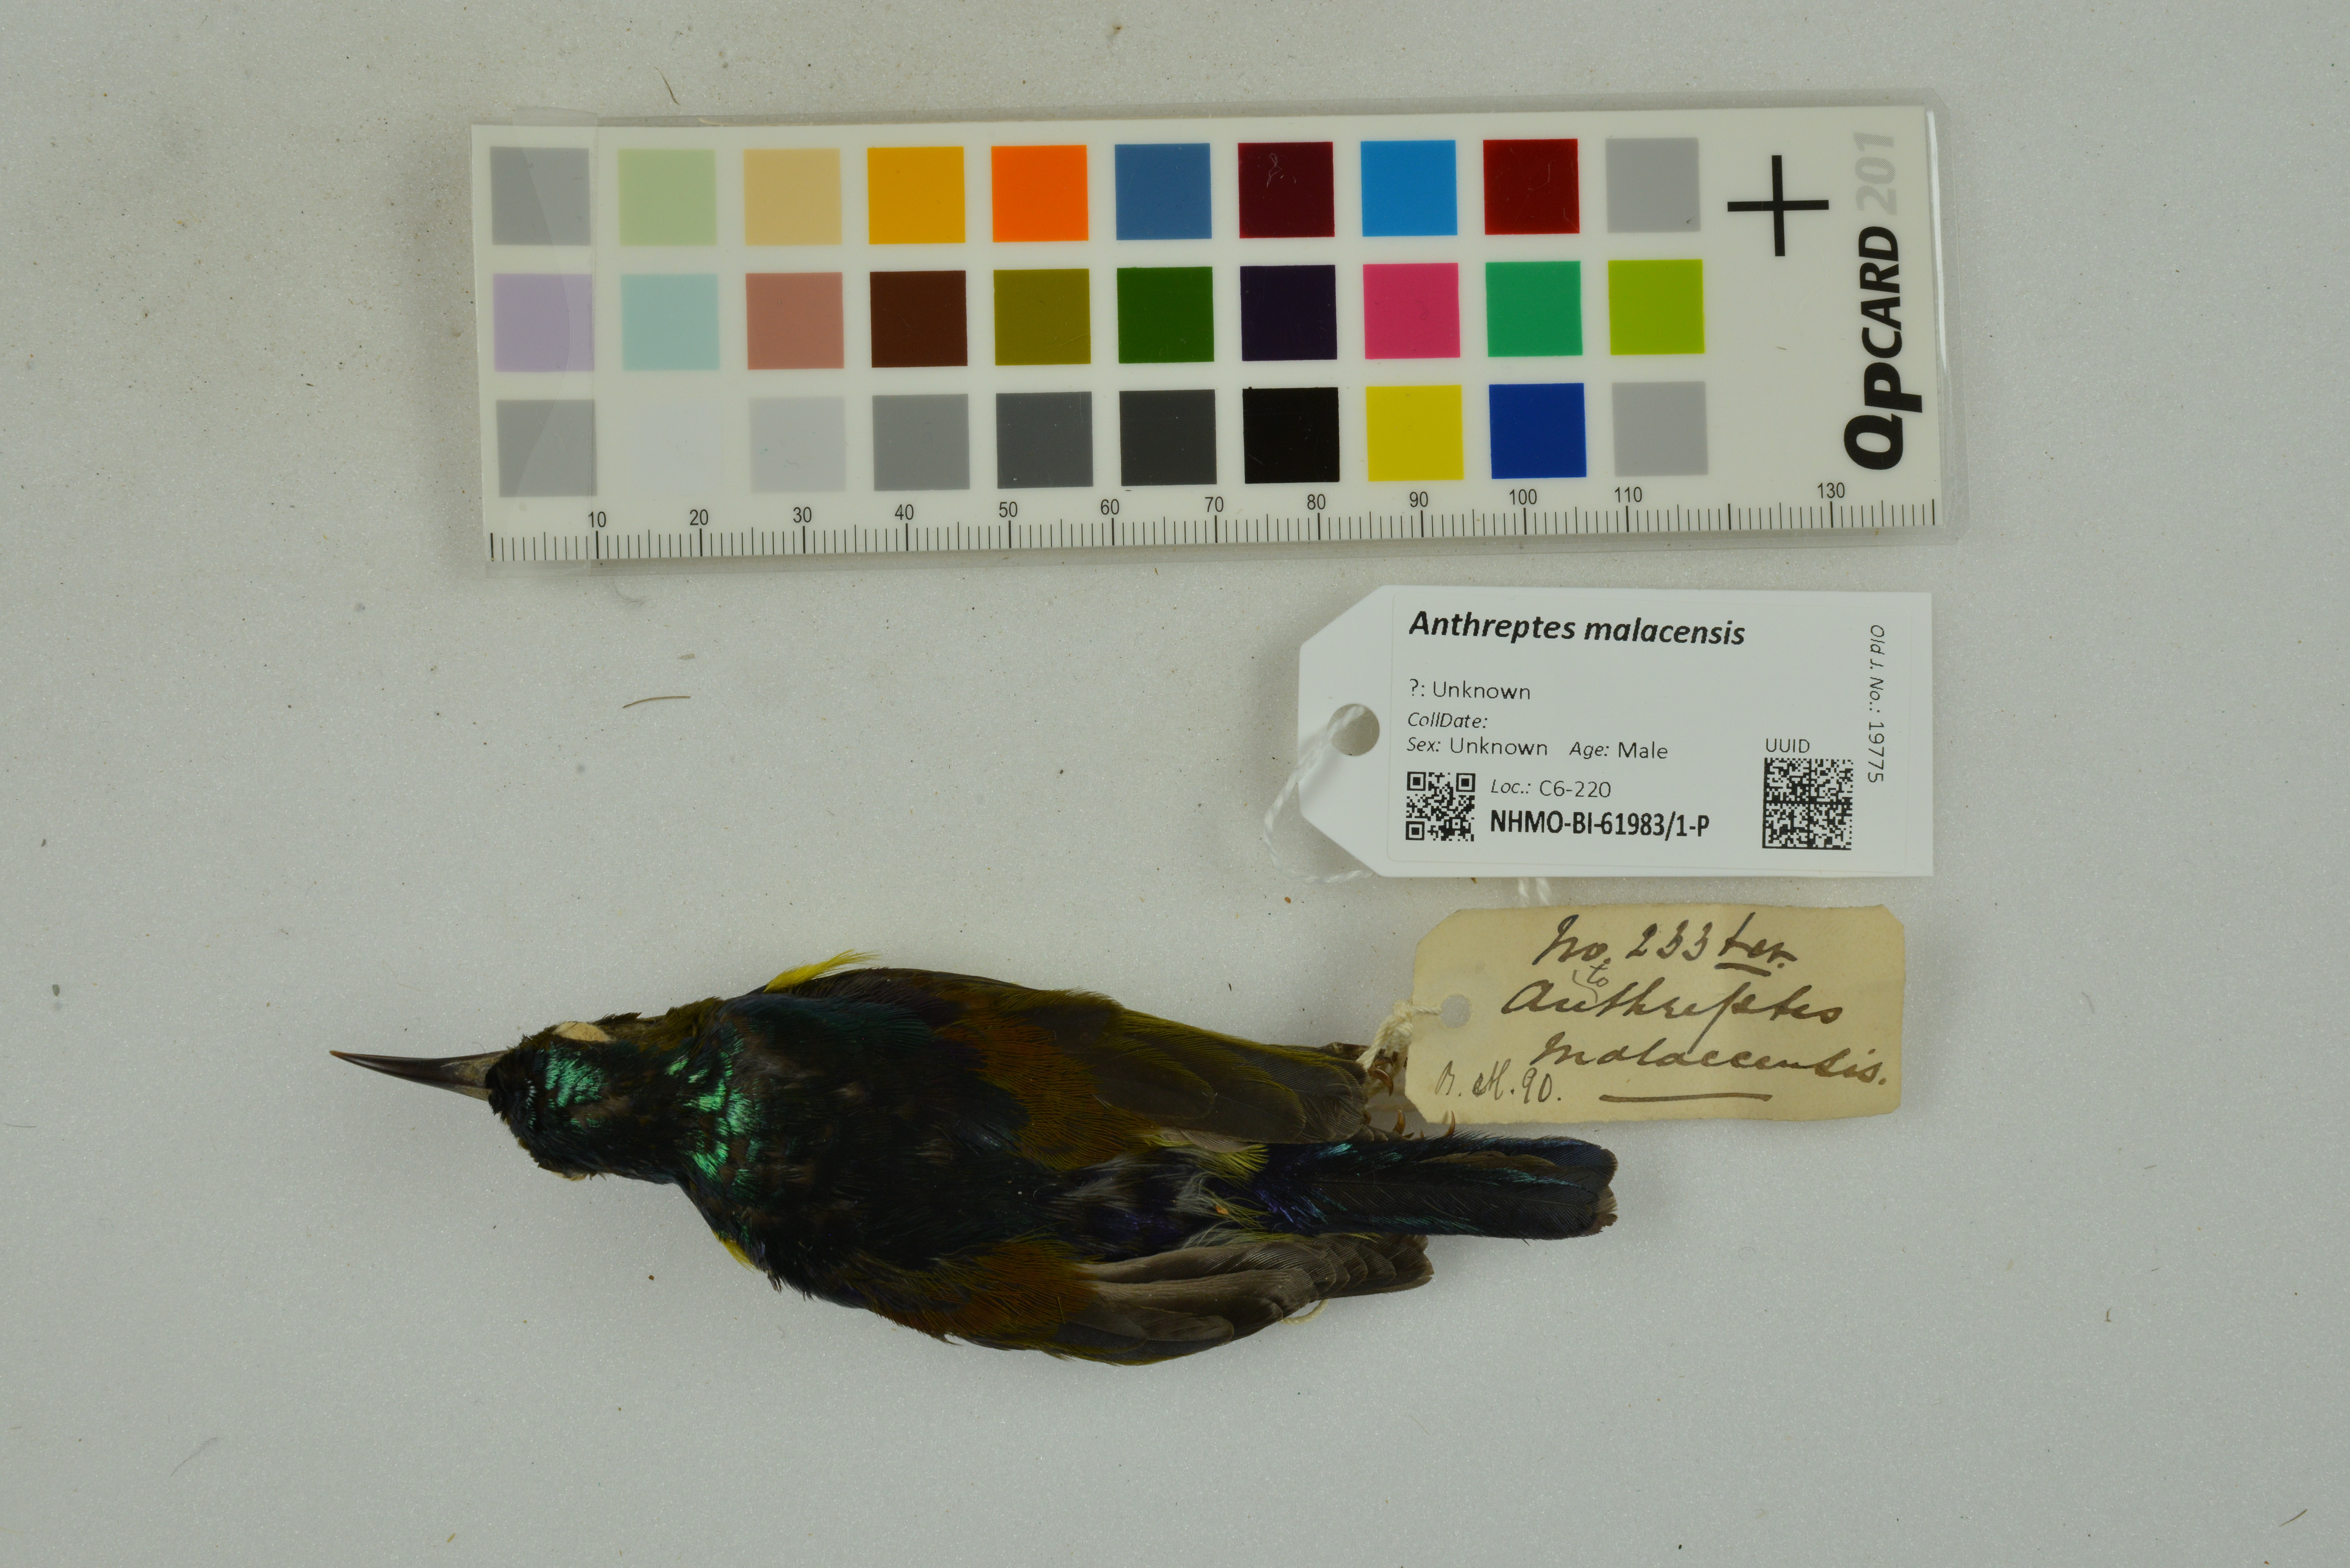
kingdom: Animalia
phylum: Chordata
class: Aves
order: Passeriformes
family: Nectariniidae
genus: Anthreptes
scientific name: Anthreptes malacensis
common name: Brown-throated sunbird
